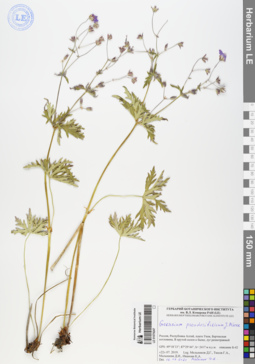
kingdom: Plantae
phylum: Tracheophyta
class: Magnoliopsida
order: Geraniales
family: Geraniaceae
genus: Geranium
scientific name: Geranium pseudosibiricum
